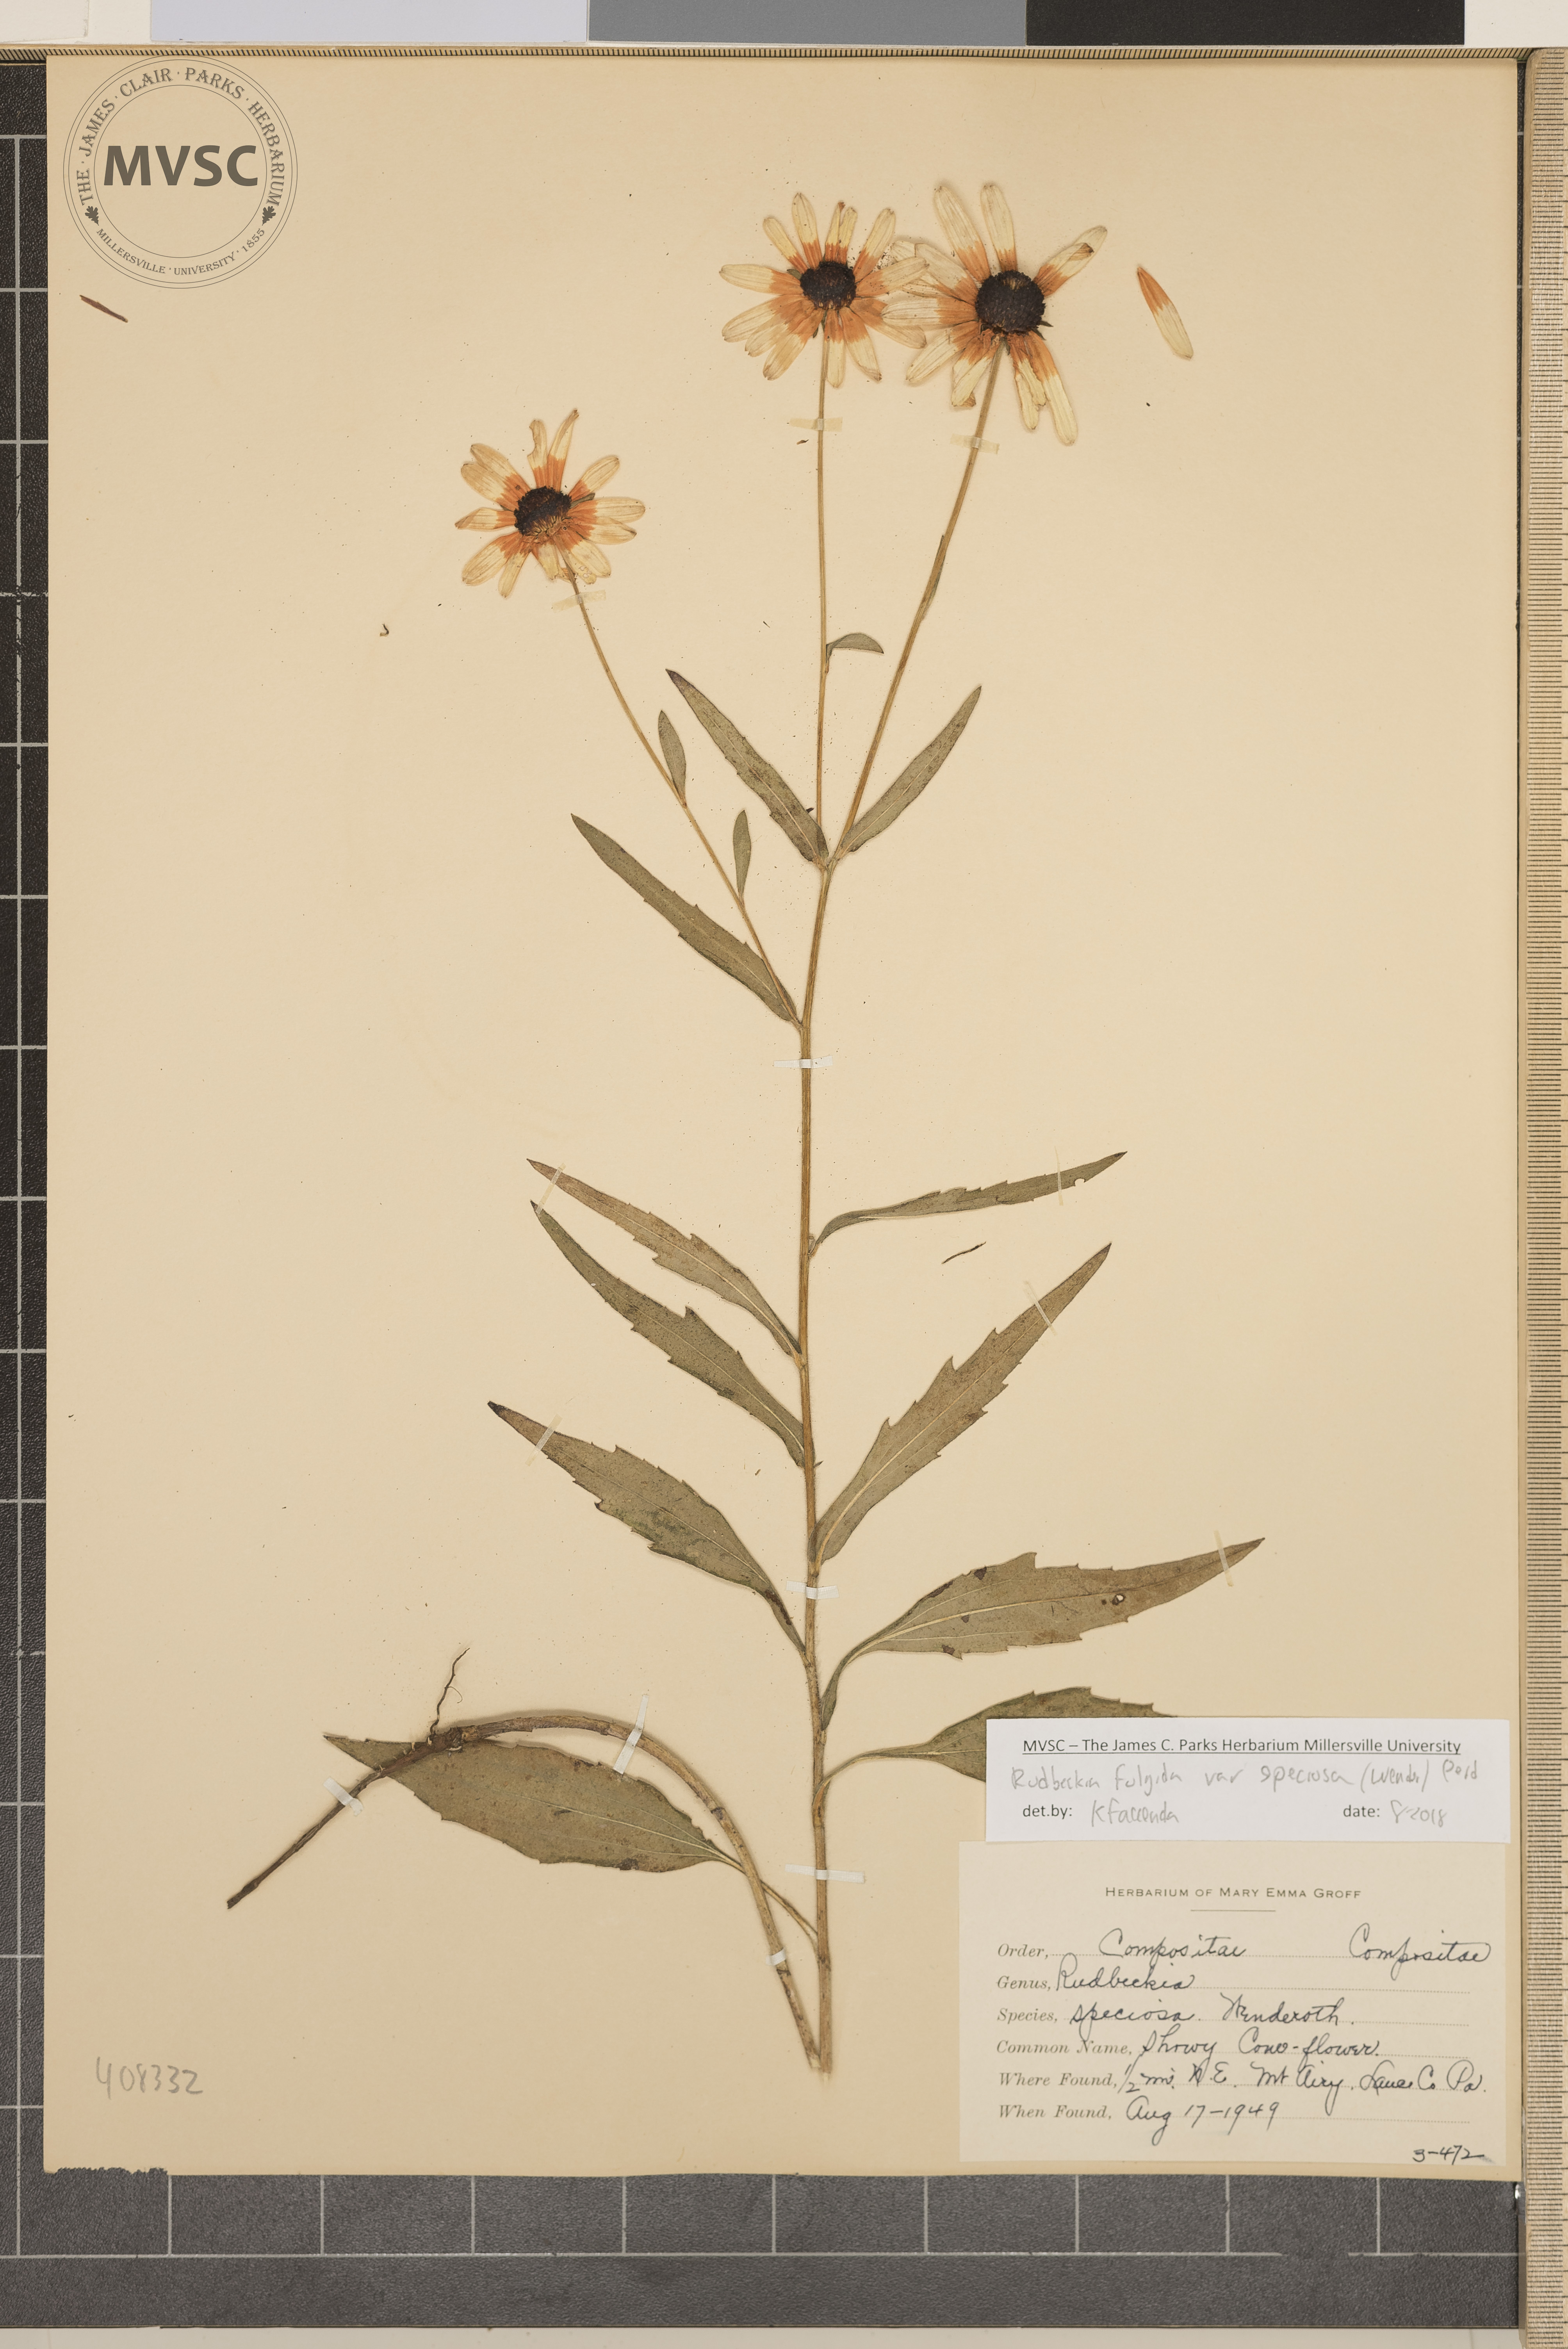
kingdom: Plantae
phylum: Tracheophyta
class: Magnoliopsida
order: Asterales
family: Asteraceae
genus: Rudbeckia
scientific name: Rudbeckia fulgida
